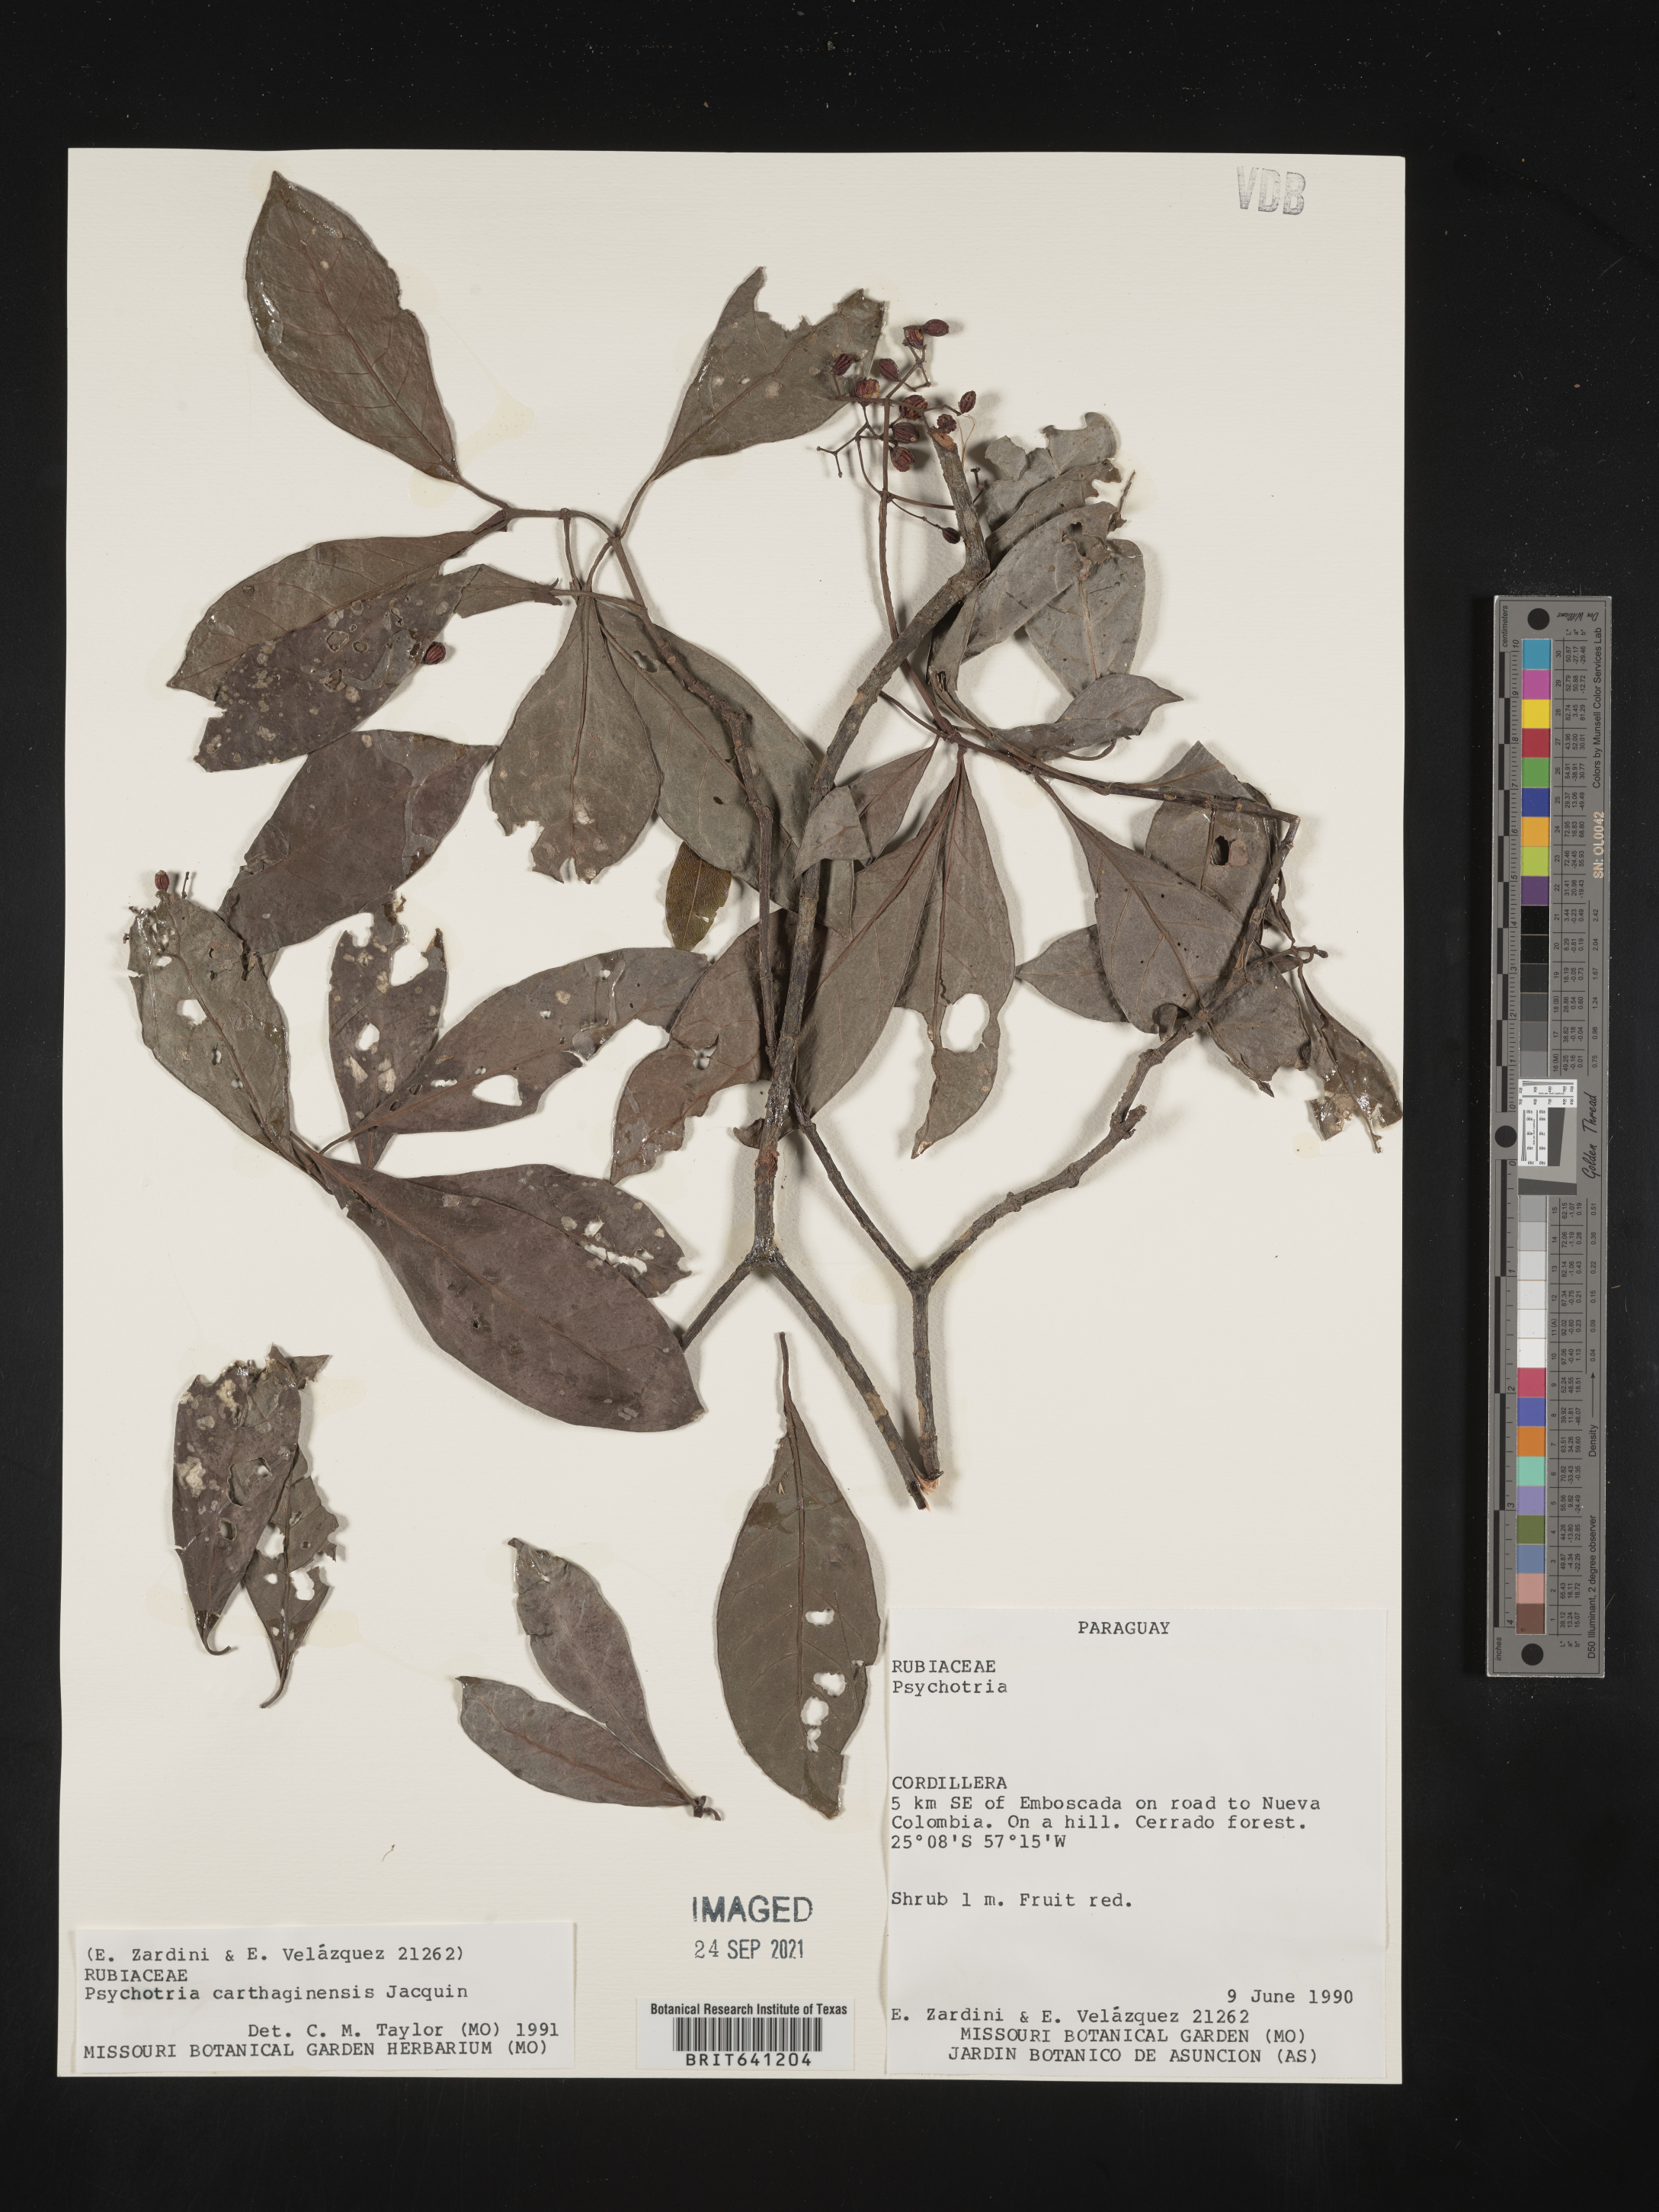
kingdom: Plantae
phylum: Tracheophyta
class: Magnoliopsida
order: Gentianales
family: Rubiaceae
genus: Psychotria
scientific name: Psychotria
